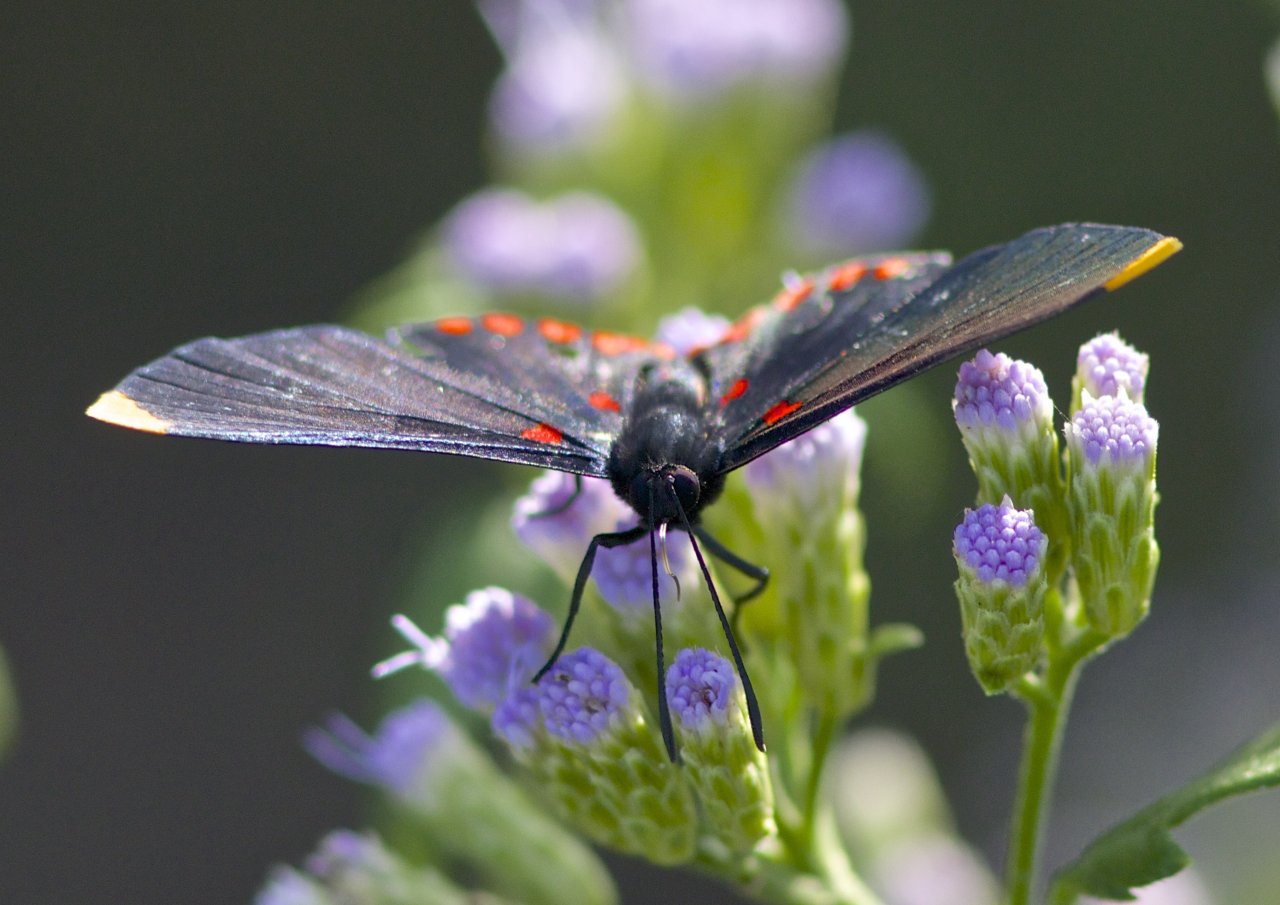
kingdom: Animalia
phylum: Arthropoda
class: Insecta
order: Lepidoptera
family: Lycaenidae
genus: Melanis
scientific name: Melanis pixe
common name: Red-bordered Pixie
